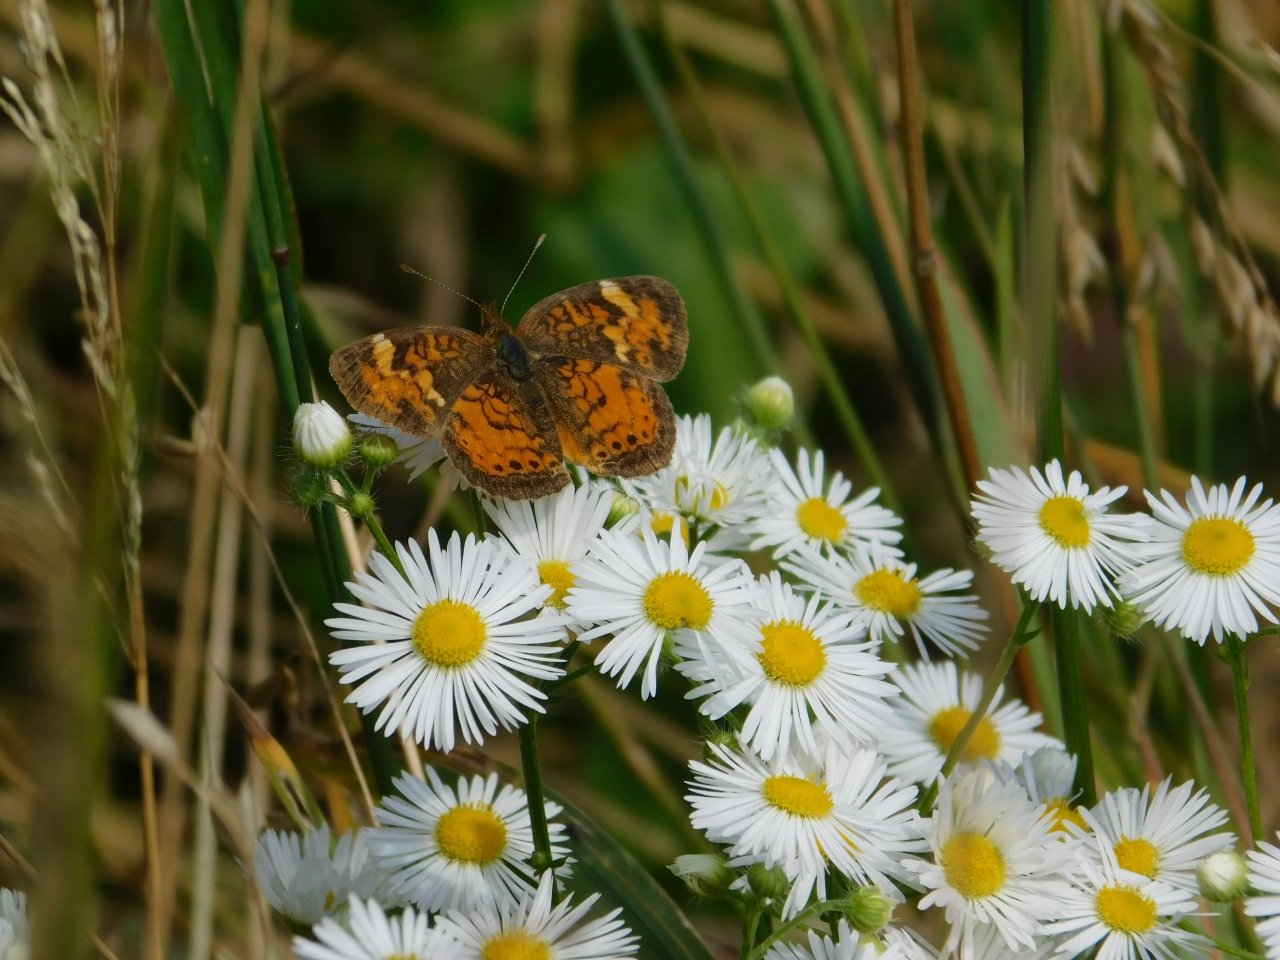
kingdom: Animalia
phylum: Arthropoda
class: Insecta
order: Lepidoptera
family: Nymphalidae
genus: Phyciodes
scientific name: Phyciodes tharos
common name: Northern Crescent
